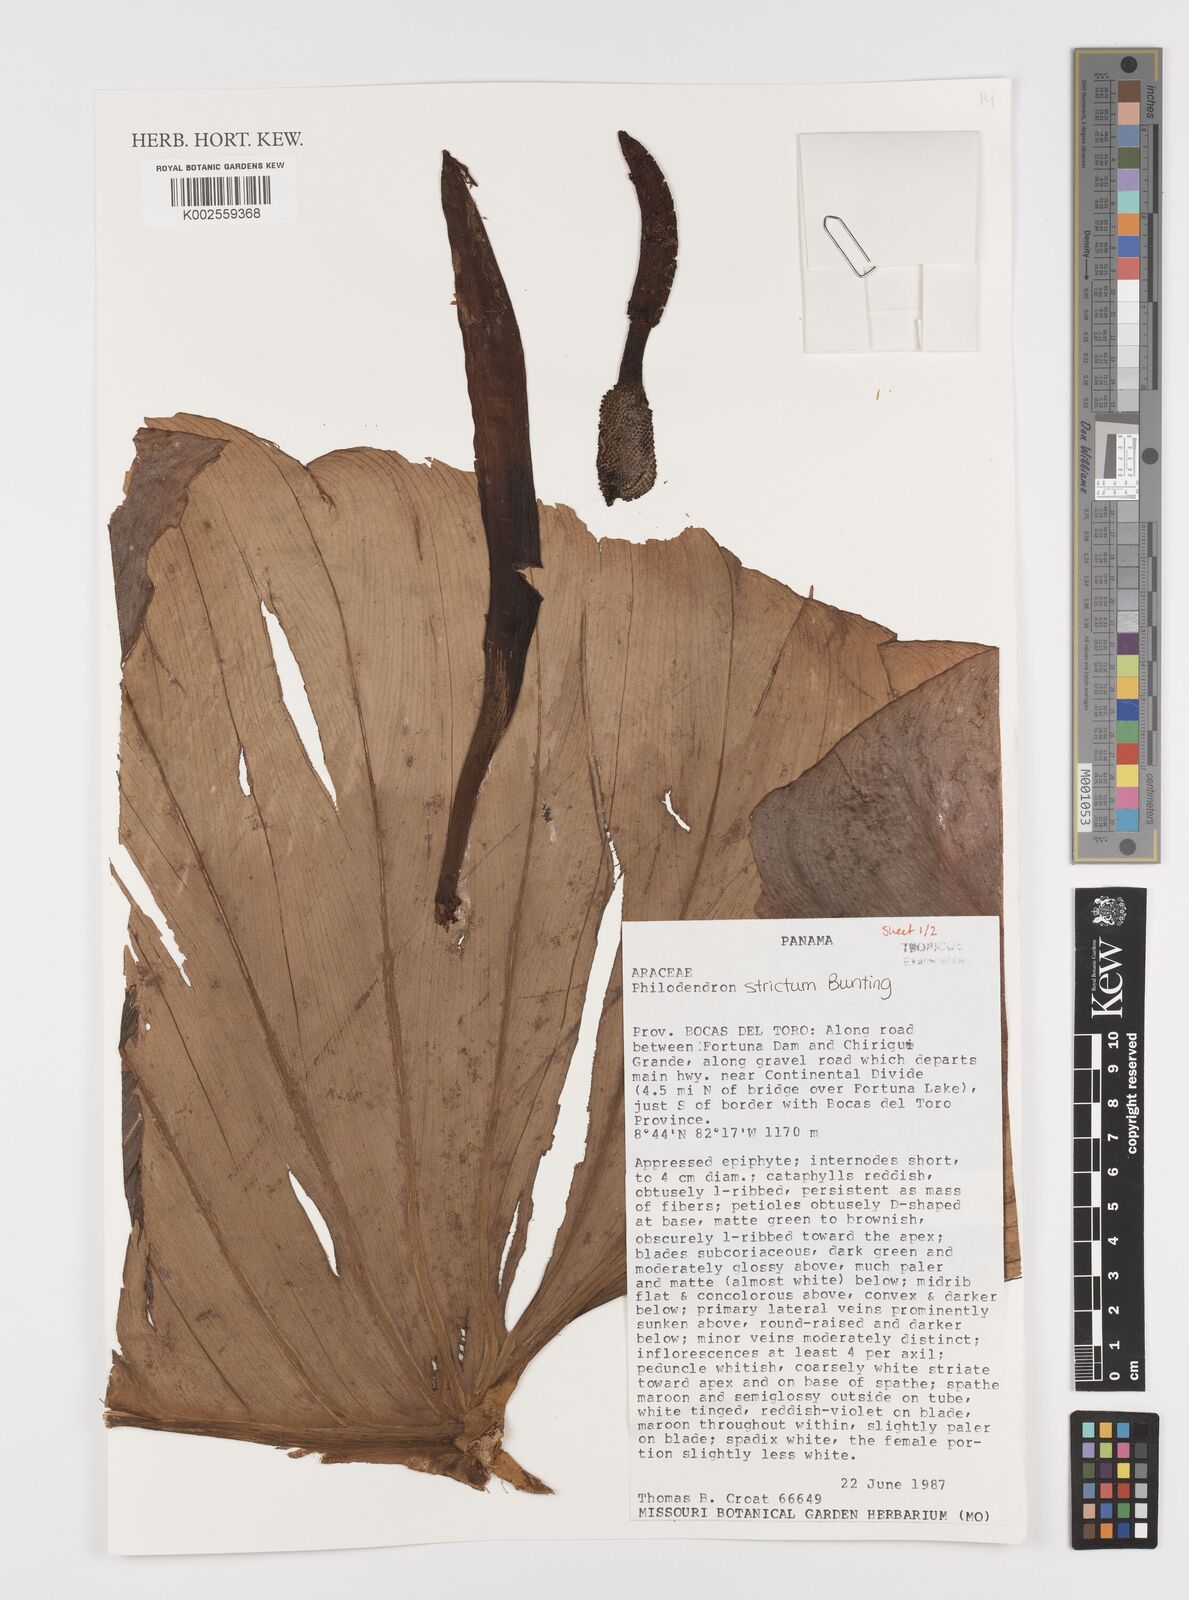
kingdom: Plantae
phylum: Tracheophyta
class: Liliopsida
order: Alismatales
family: Araceae
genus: Philodendron
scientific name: Philodendron strictum
